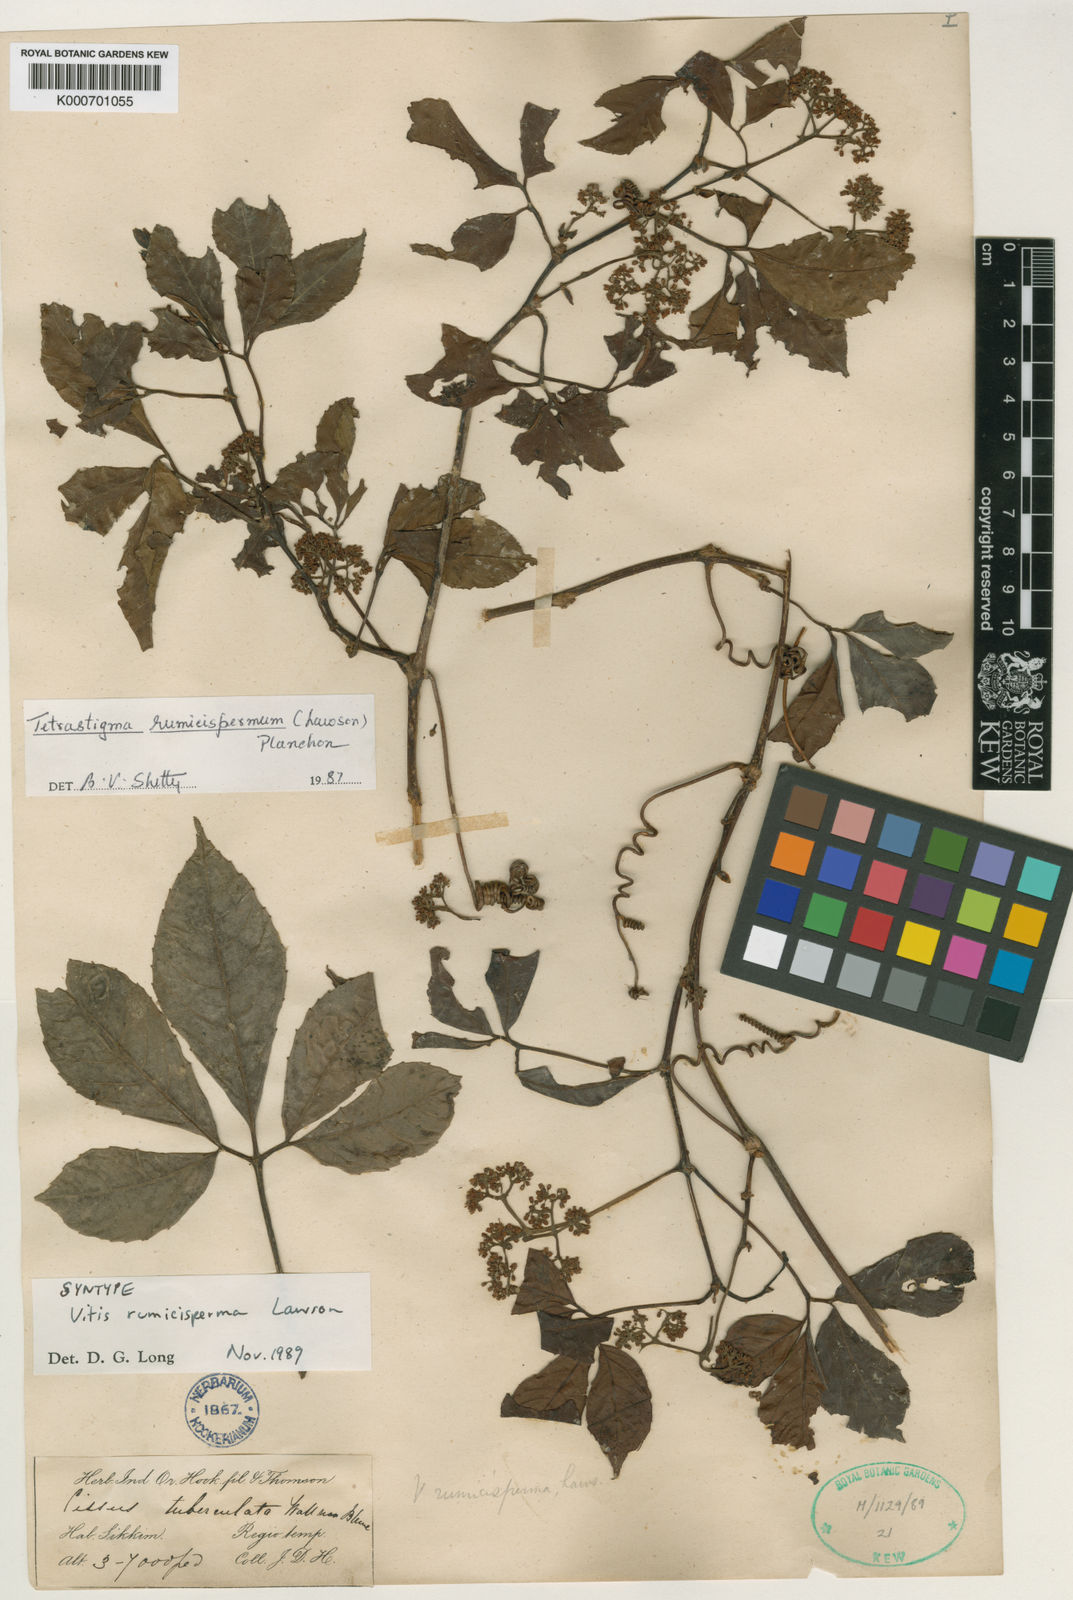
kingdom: Plantae
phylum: Tracheophyta
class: Magnoliopsida
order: Vitales
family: Vitaceae
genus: Tetrastigma
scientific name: Tetrastigma rumicispermum
